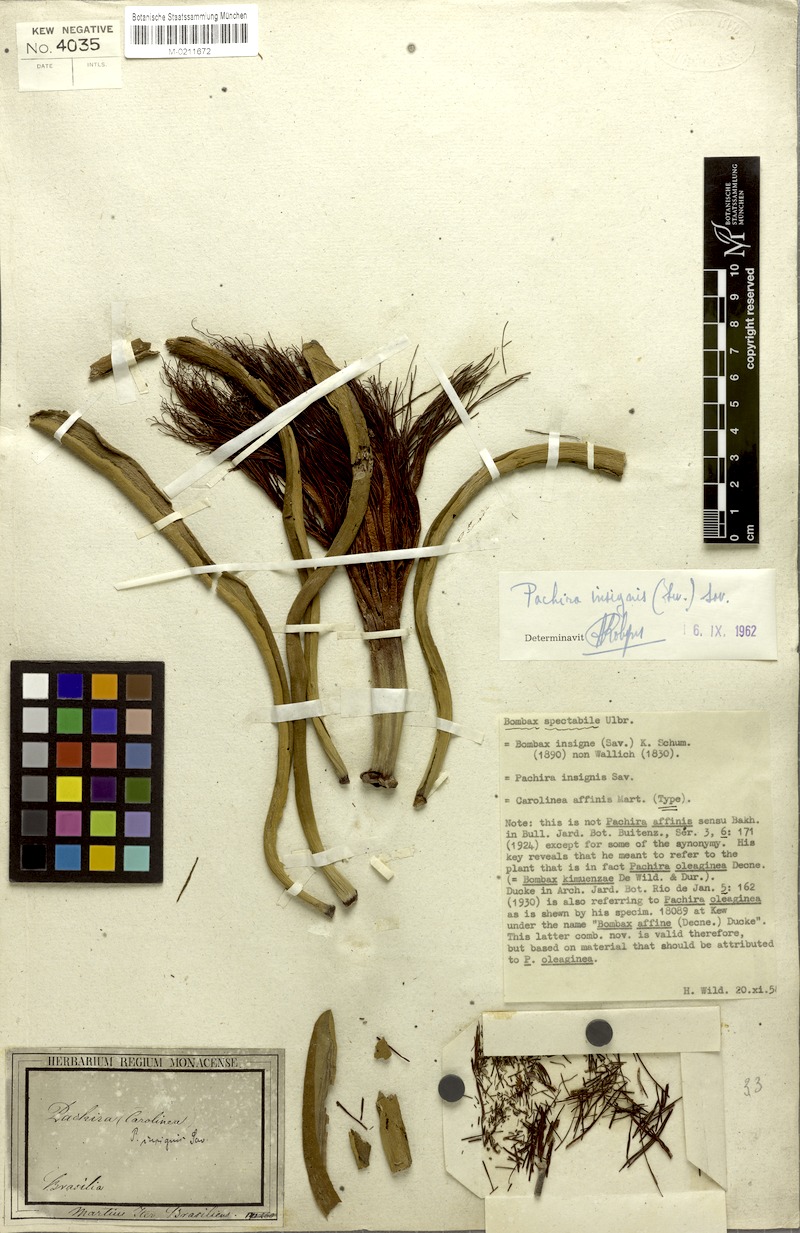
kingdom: Plantae
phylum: Tracheophyta
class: Magnoliopsida
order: Malvales
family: Malvaceae
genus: Pachira
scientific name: Pachira insignis
